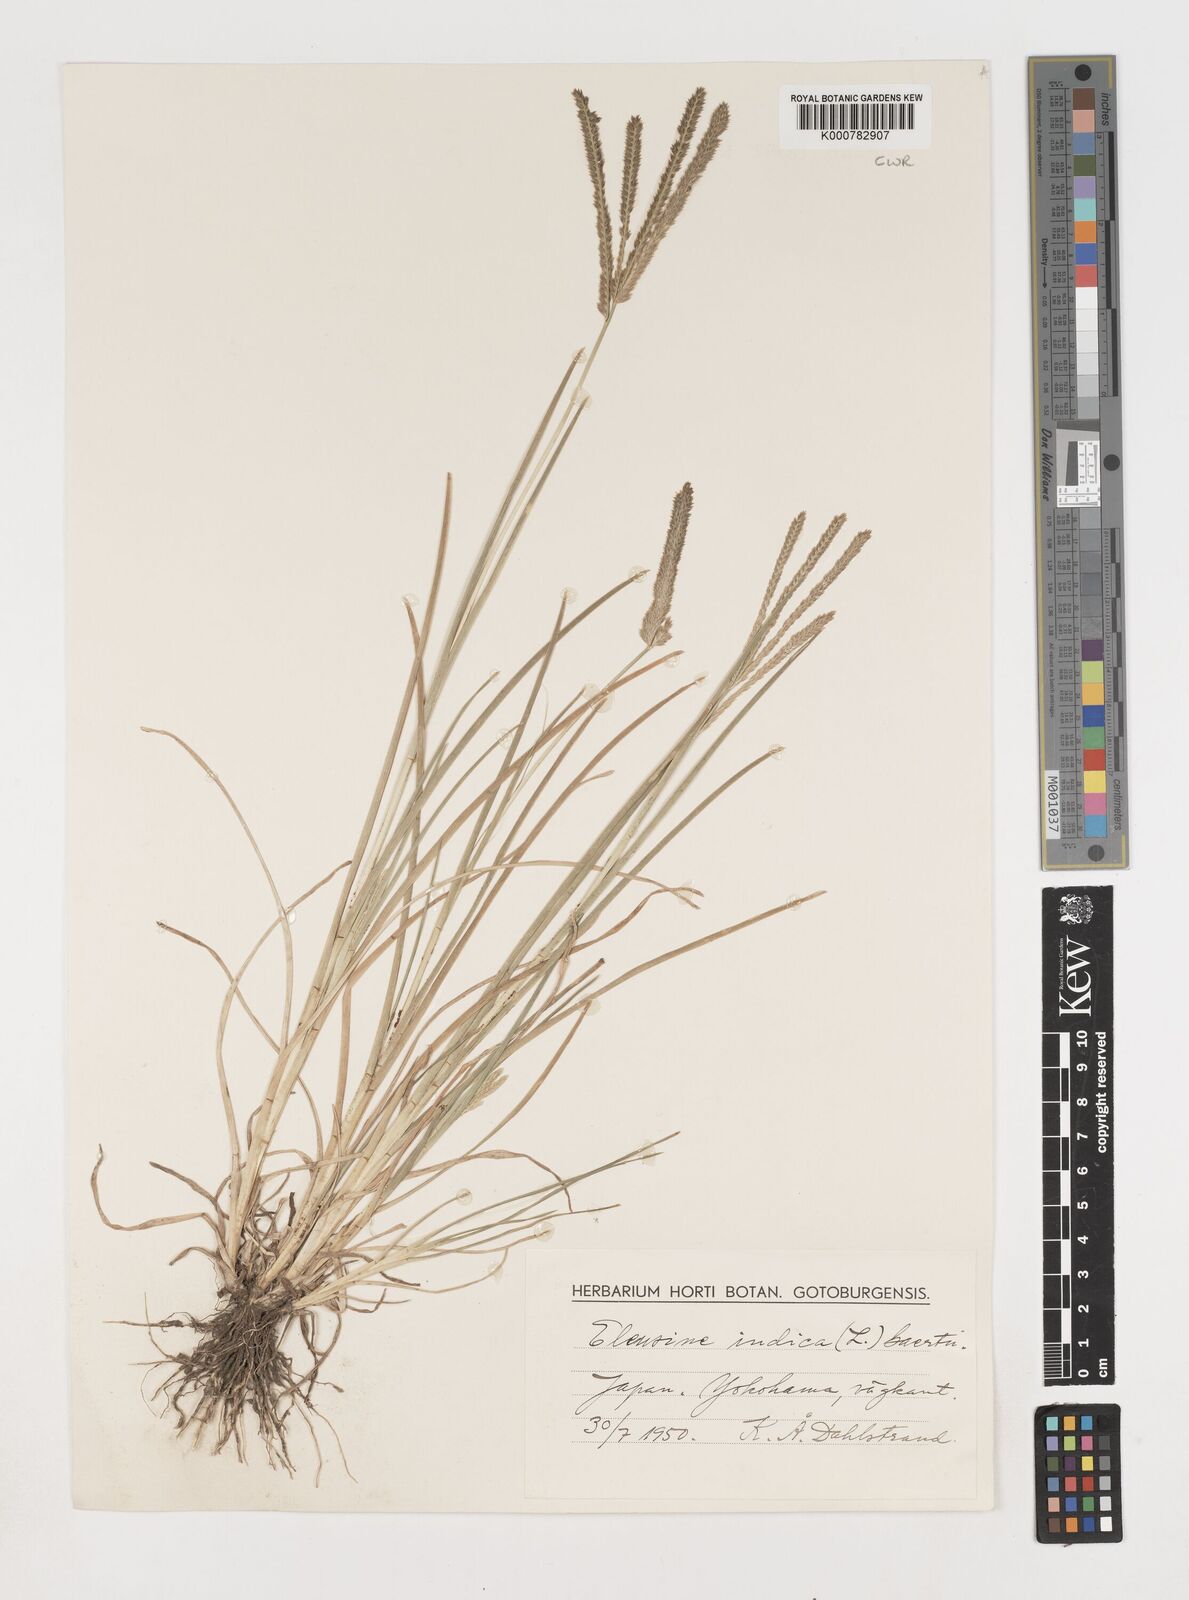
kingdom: Plantae
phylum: Tracheophyta
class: Liliopsida
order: Poales
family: Poaceae
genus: Eleusine
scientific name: Eleusine indica
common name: Yard-grass
